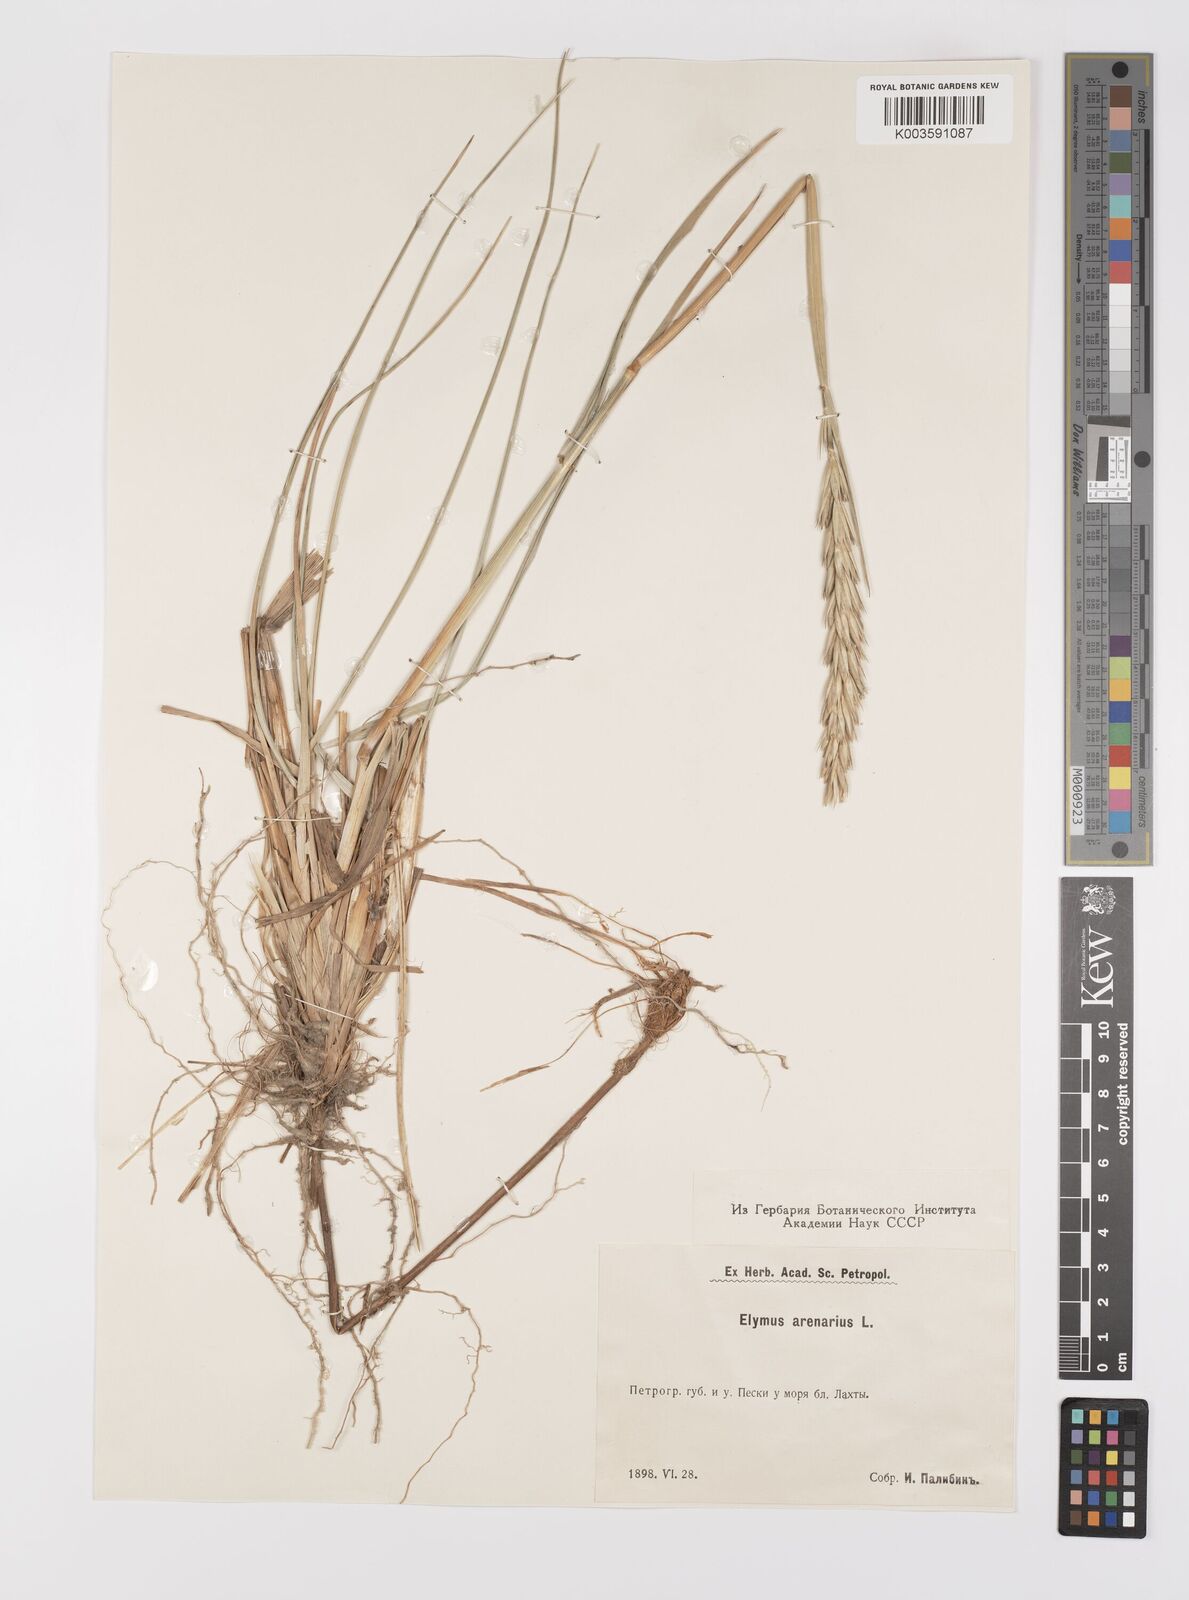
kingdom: Plantae
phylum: Tracheophyta
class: Liliopsida
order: Poales
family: Poaceae
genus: Leymus
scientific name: Leymus arenarius
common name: Lyme-grass
